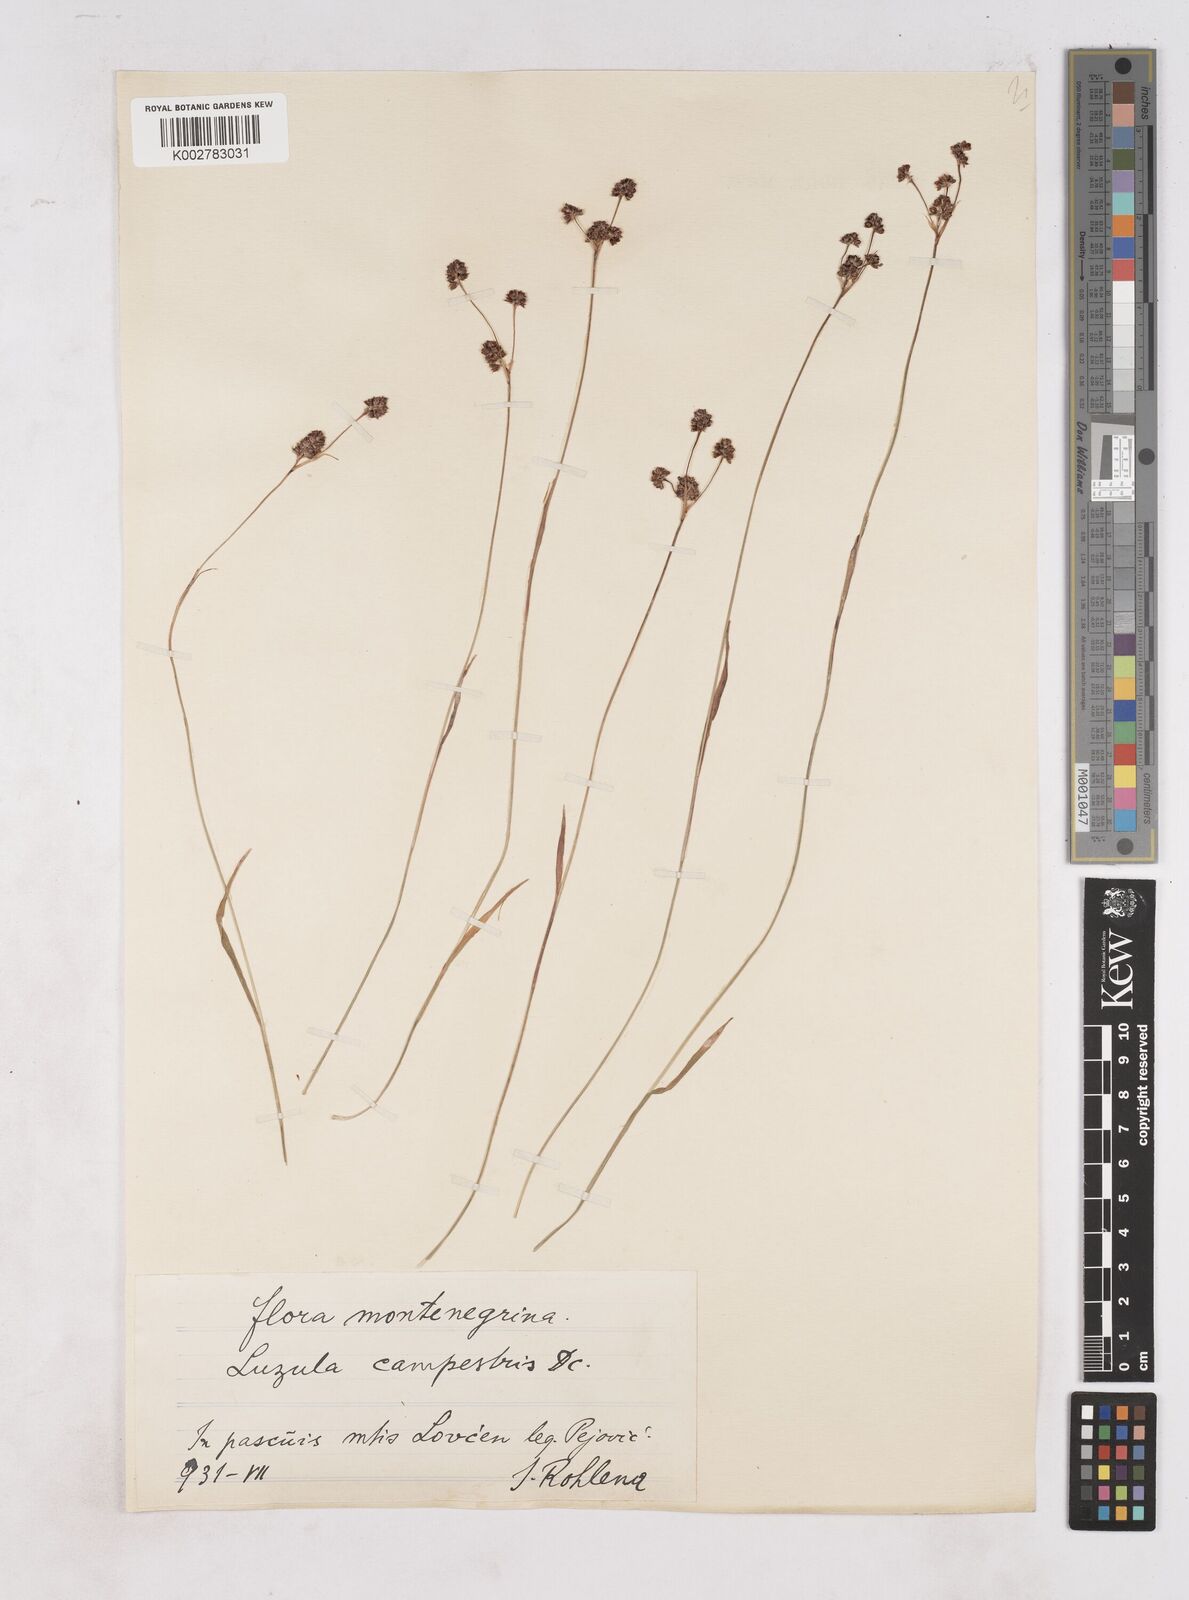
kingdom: Plantae
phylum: Tracheophyta
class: Liliopsida
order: Poales
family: Juncaceae
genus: Luzula
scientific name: Luzula campestris
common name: Field wood-rush
